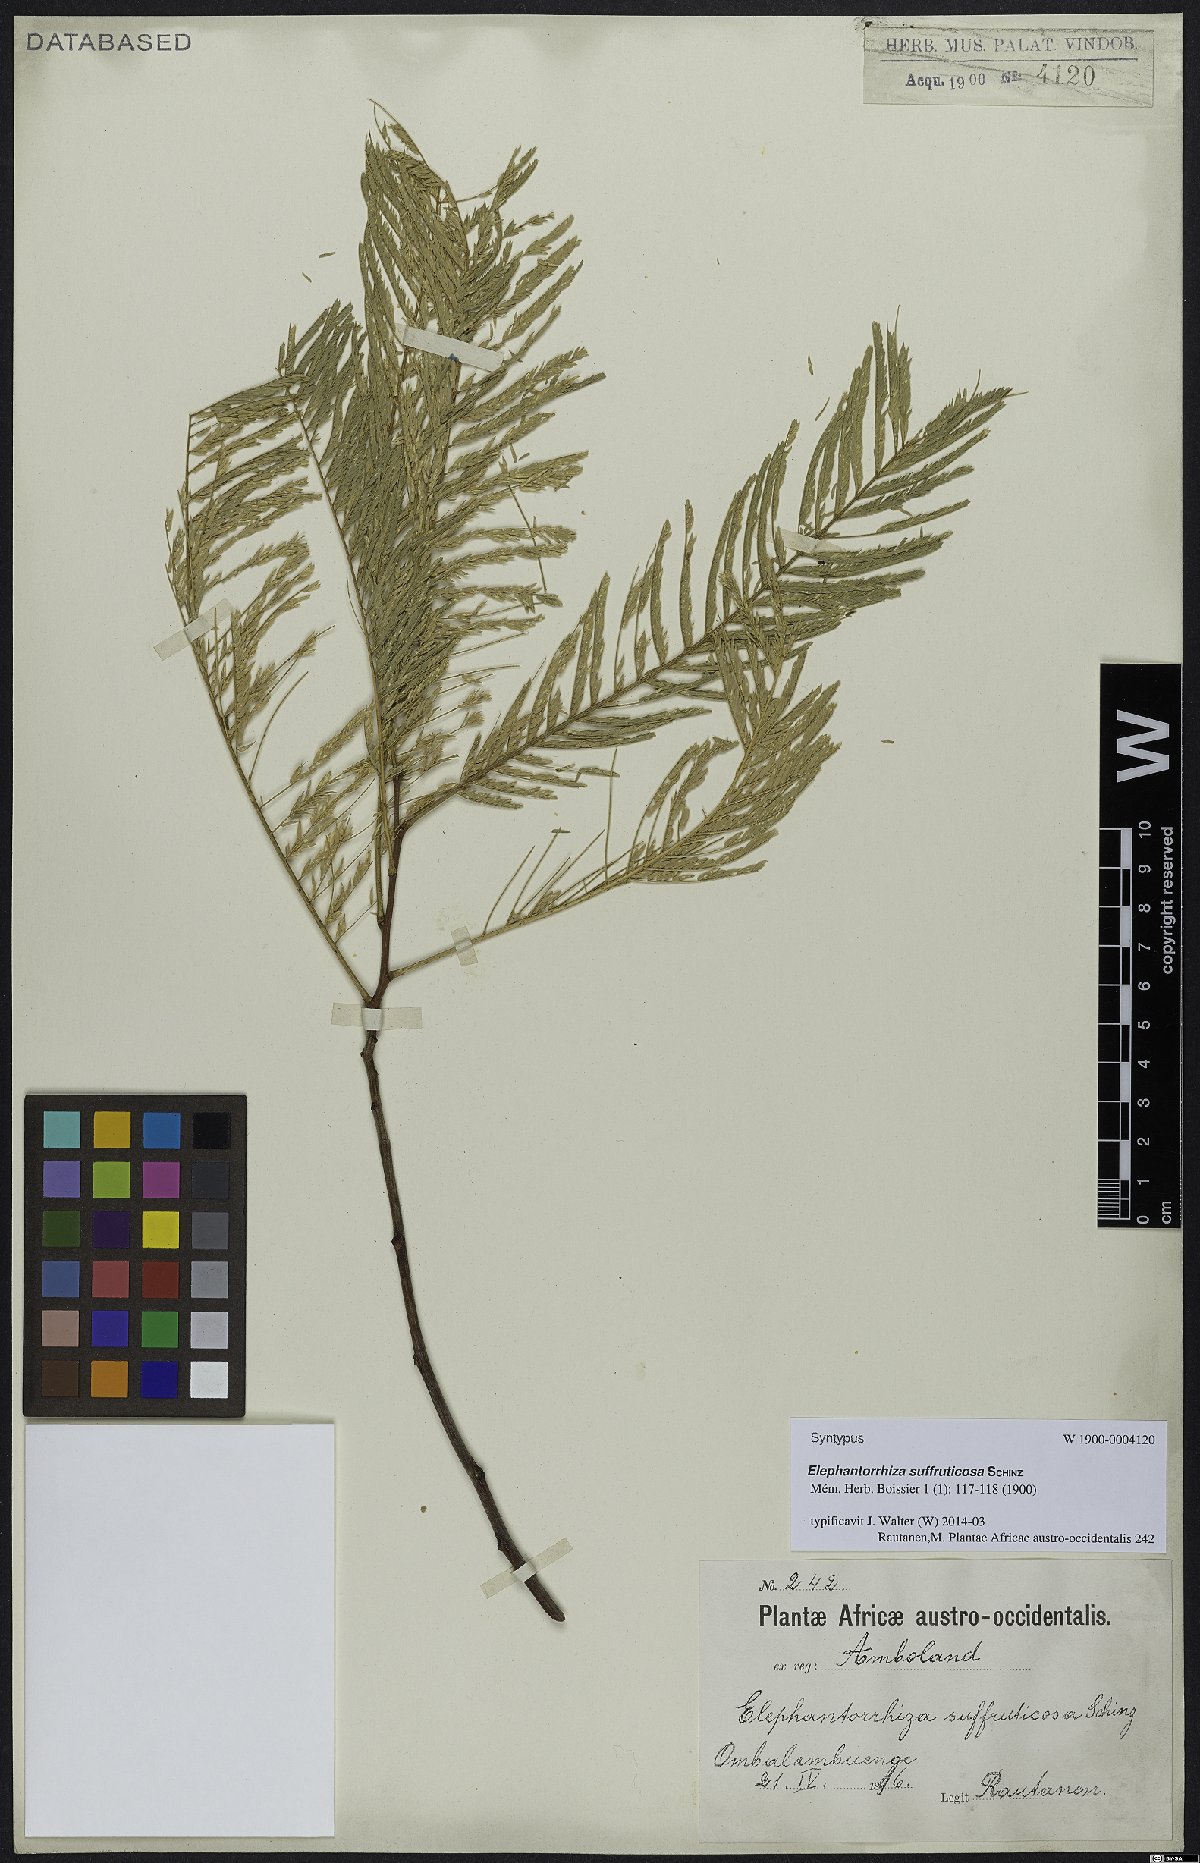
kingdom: Plantae
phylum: Tracheophyta
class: Magnoliopsida
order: Fabales
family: Fabaceae
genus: Elephantorrhiza
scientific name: Elephantorrhiza suffruticosa
